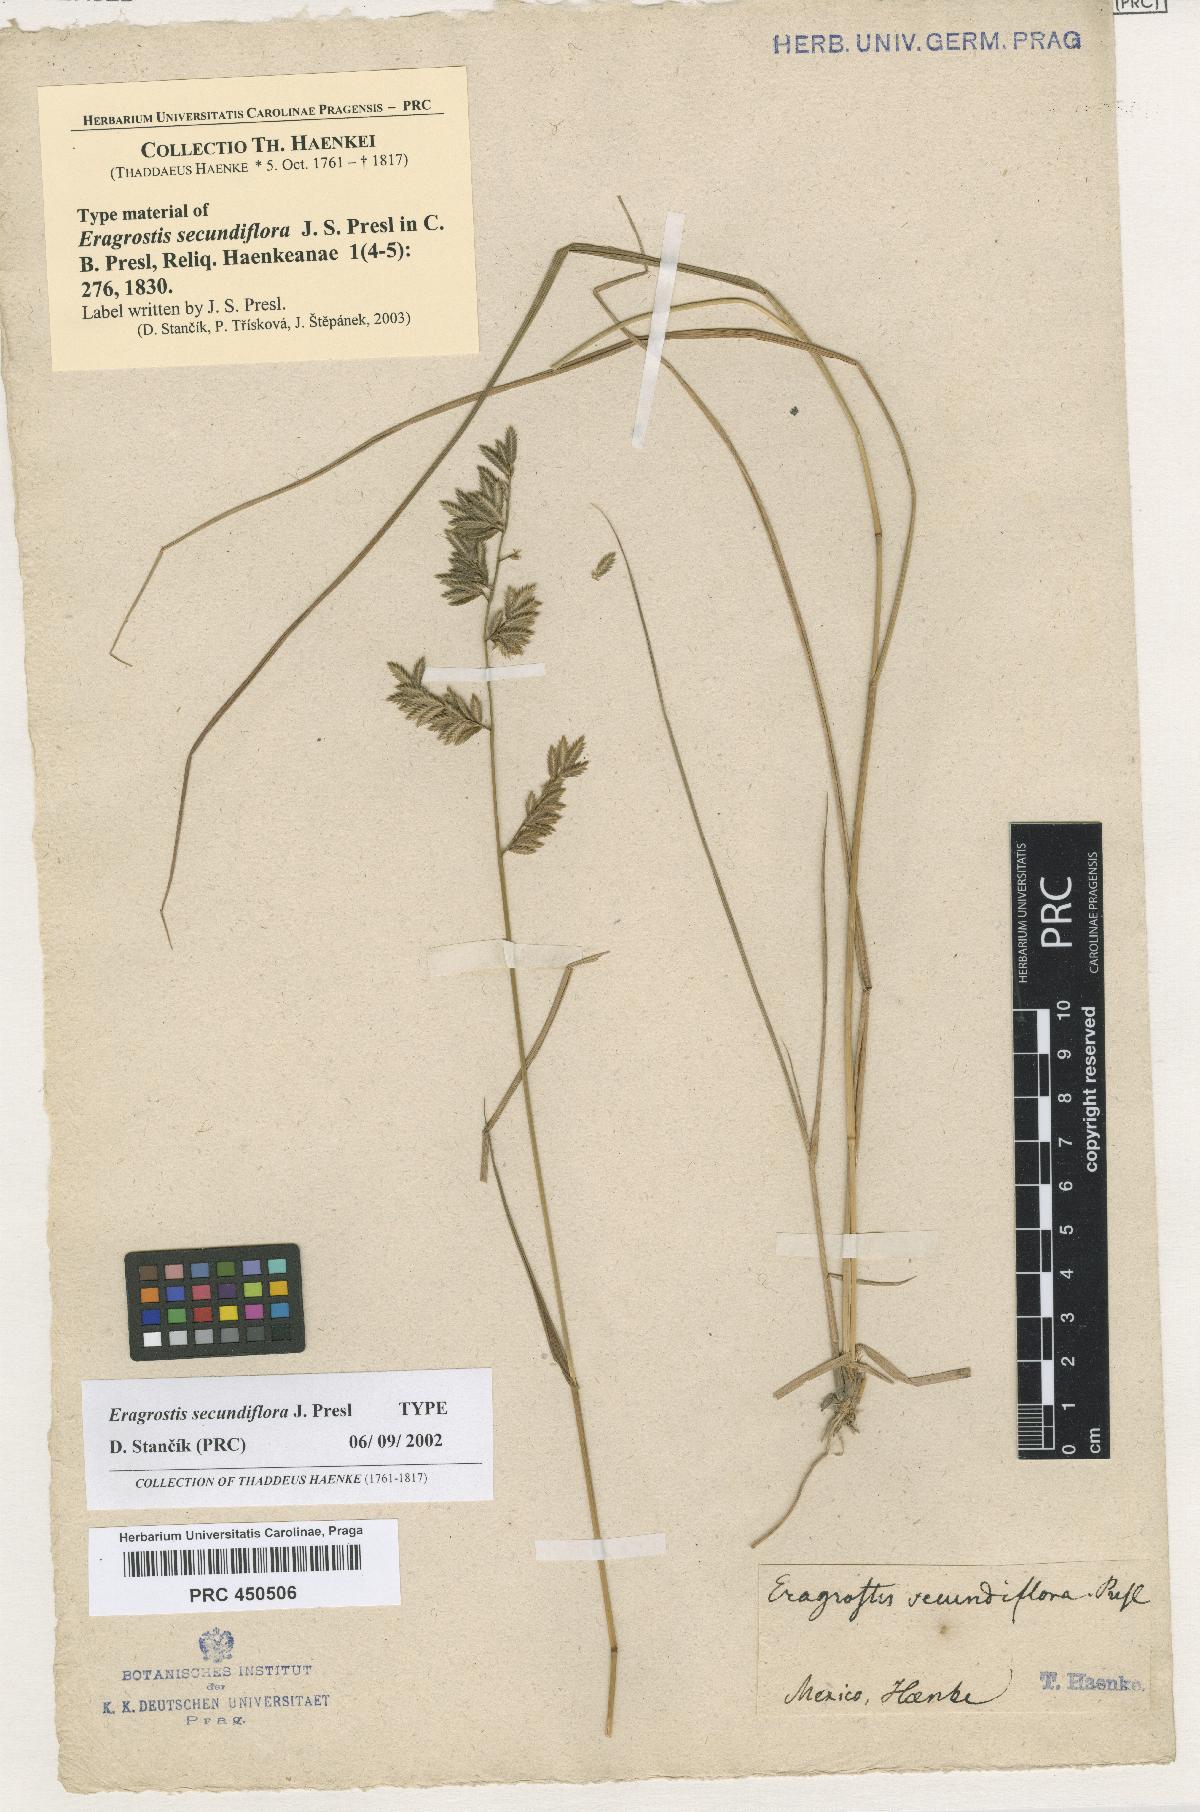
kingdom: Plantae
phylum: Tracheophyta
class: Liliopsida
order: Poales
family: Poaceae
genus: Eragrostis
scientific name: Eragrostis secundiflora
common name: Red love grass
